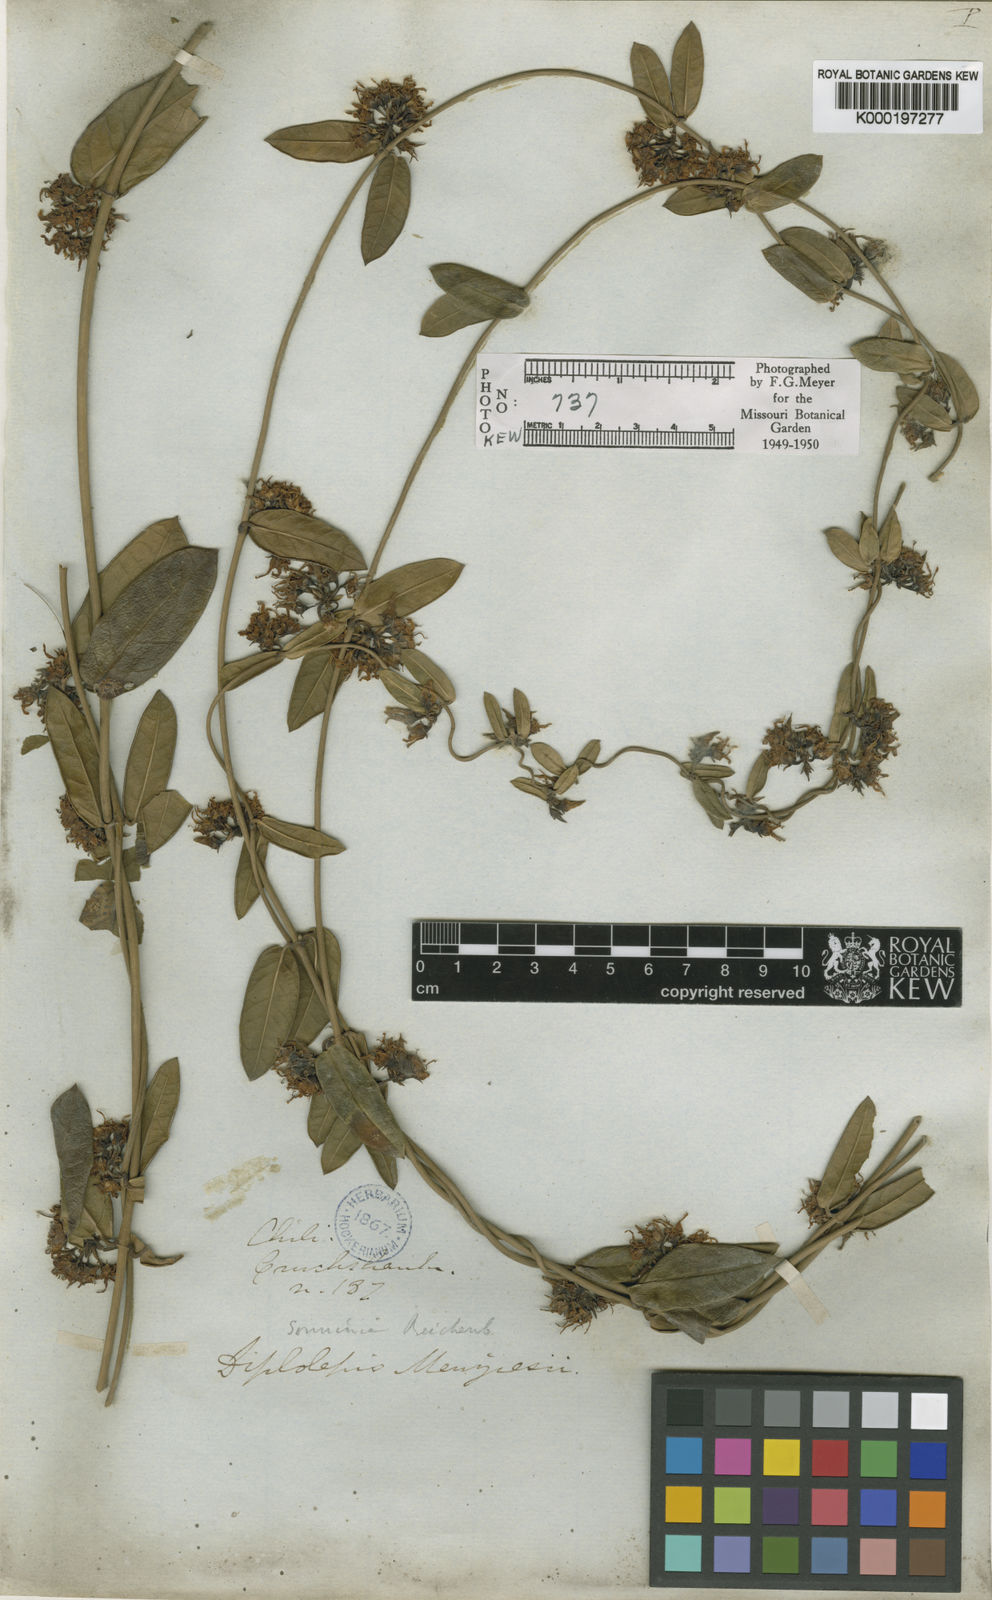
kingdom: Plantae
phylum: Tracheophyta
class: Magnoliopsida
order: Gentianales
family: Apocynaceae
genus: Diplolepis
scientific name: Diplolepis menziesii
